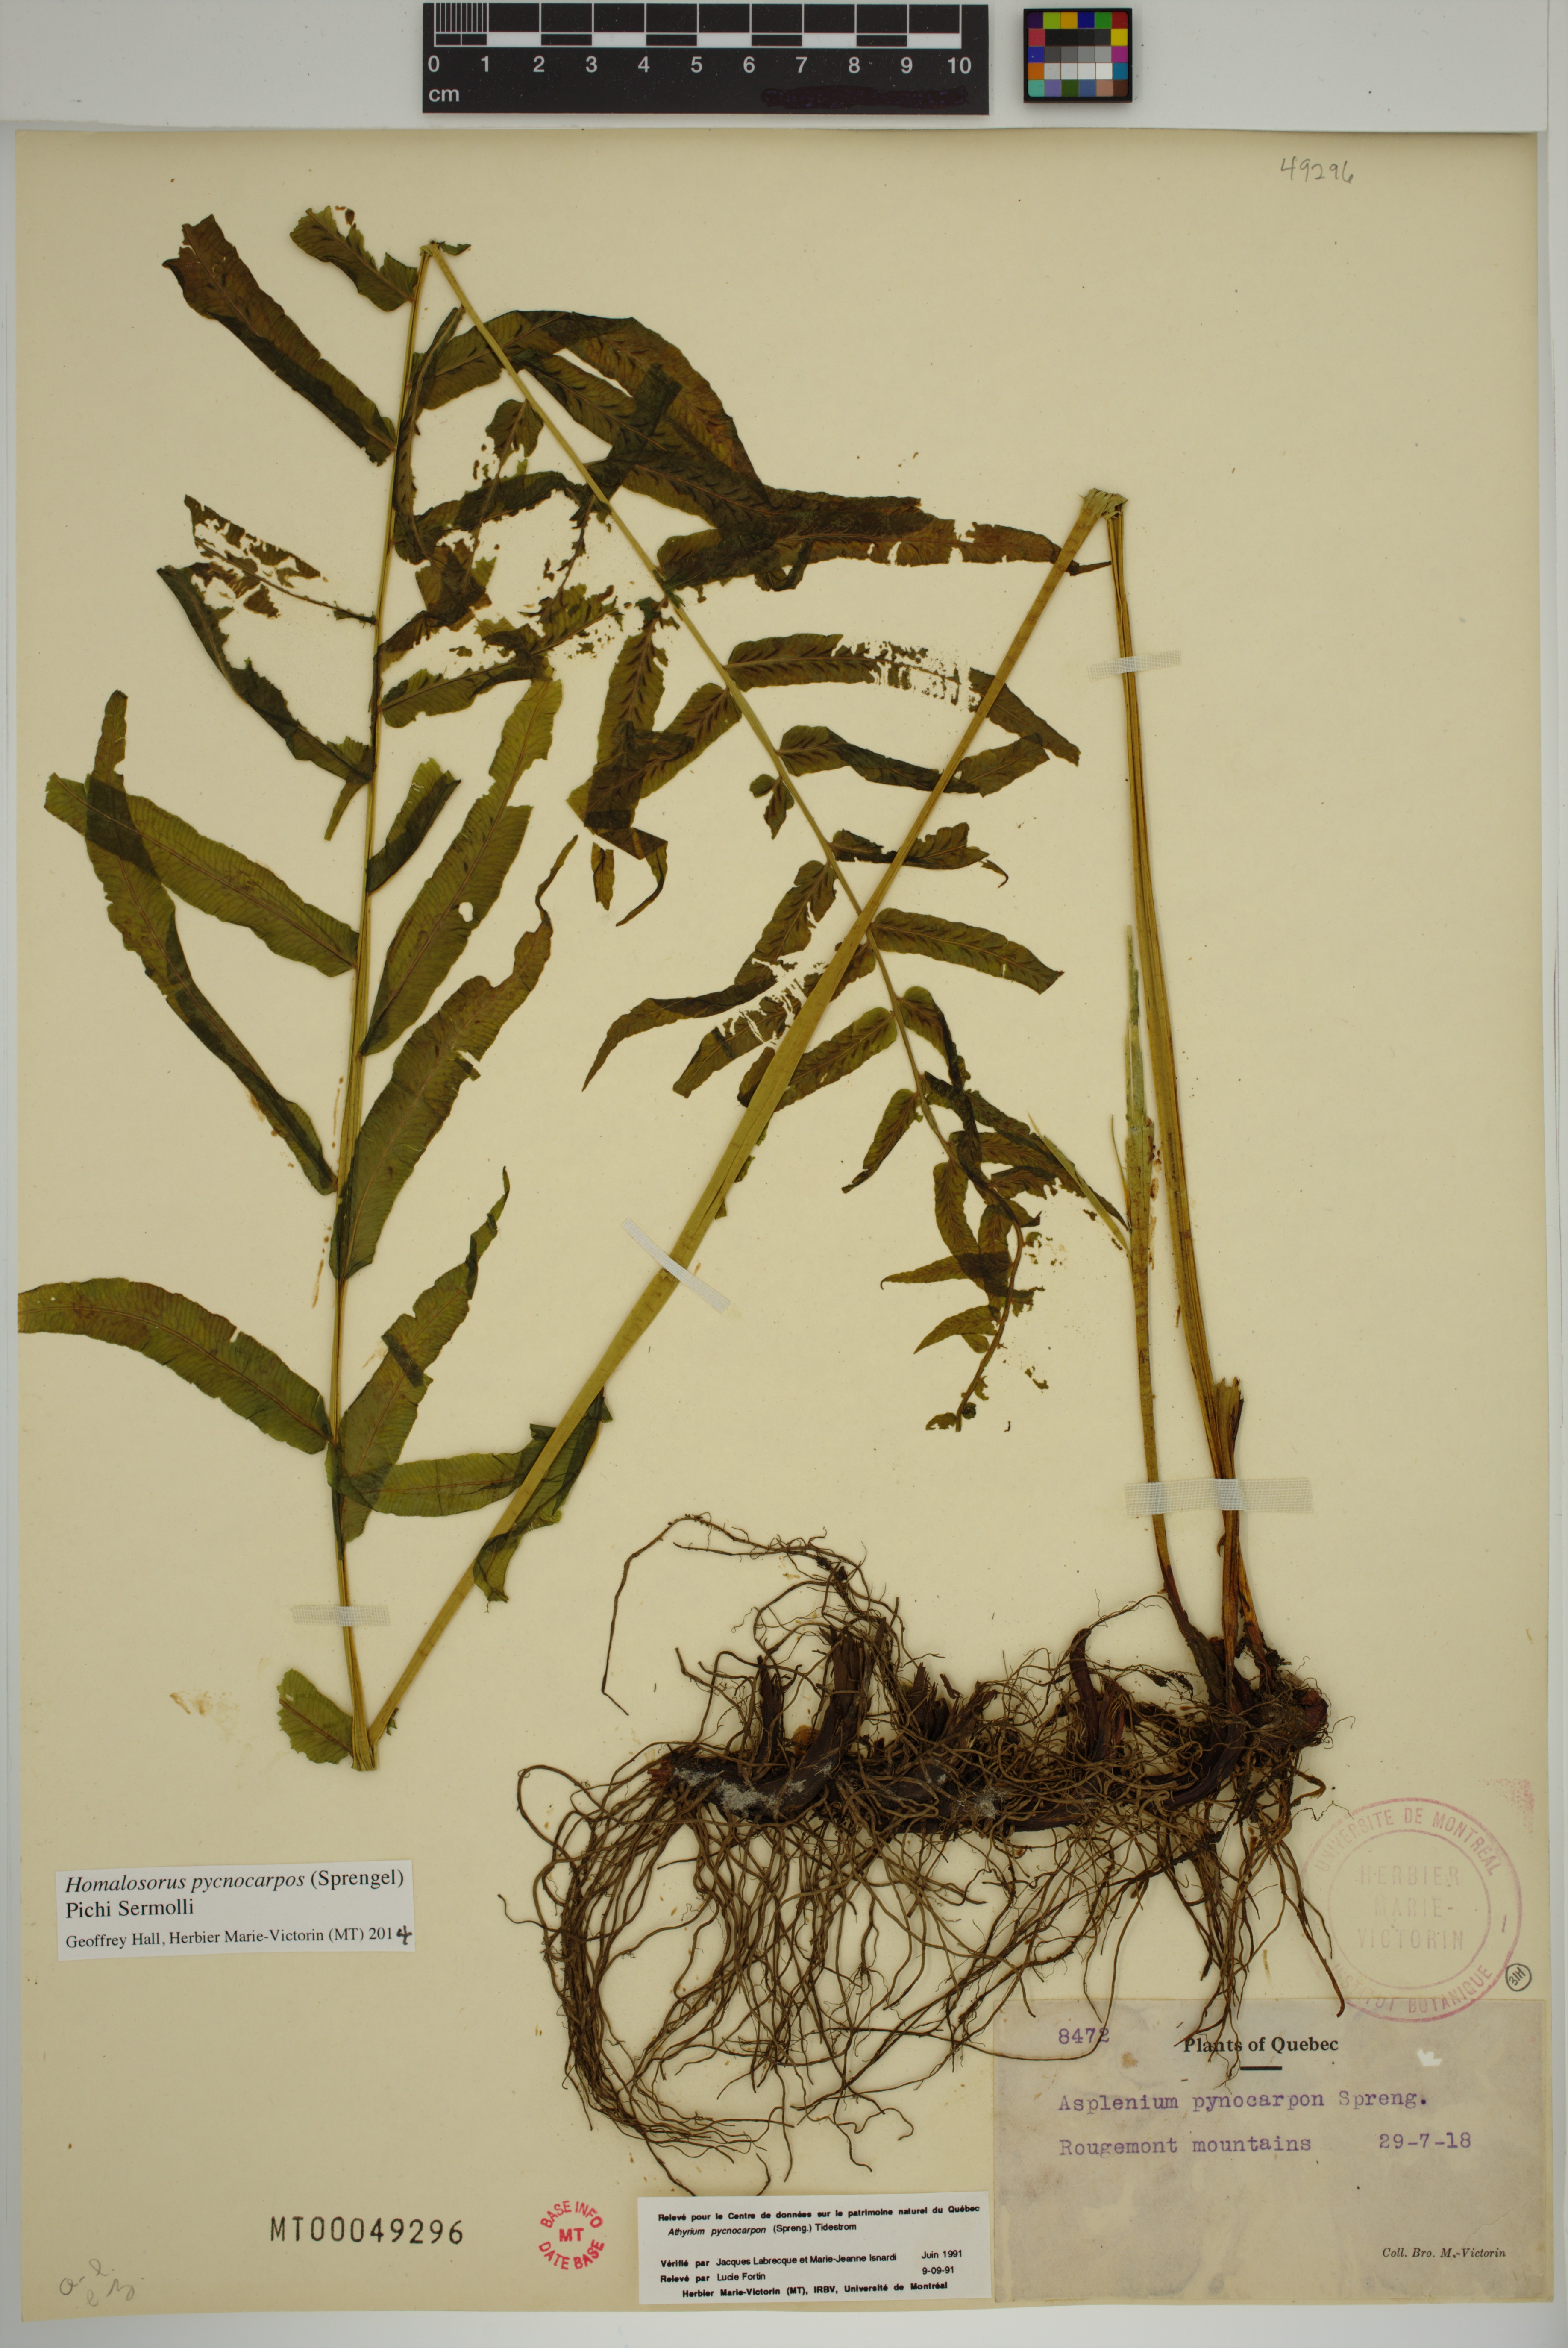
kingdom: Plantae
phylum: Tracheophyta
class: Polypodiopsida
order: Polypodiales
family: Diplaziopsidaceae
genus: Homalosorus
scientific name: Homalosorus pycnocarpos
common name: Glade fern
